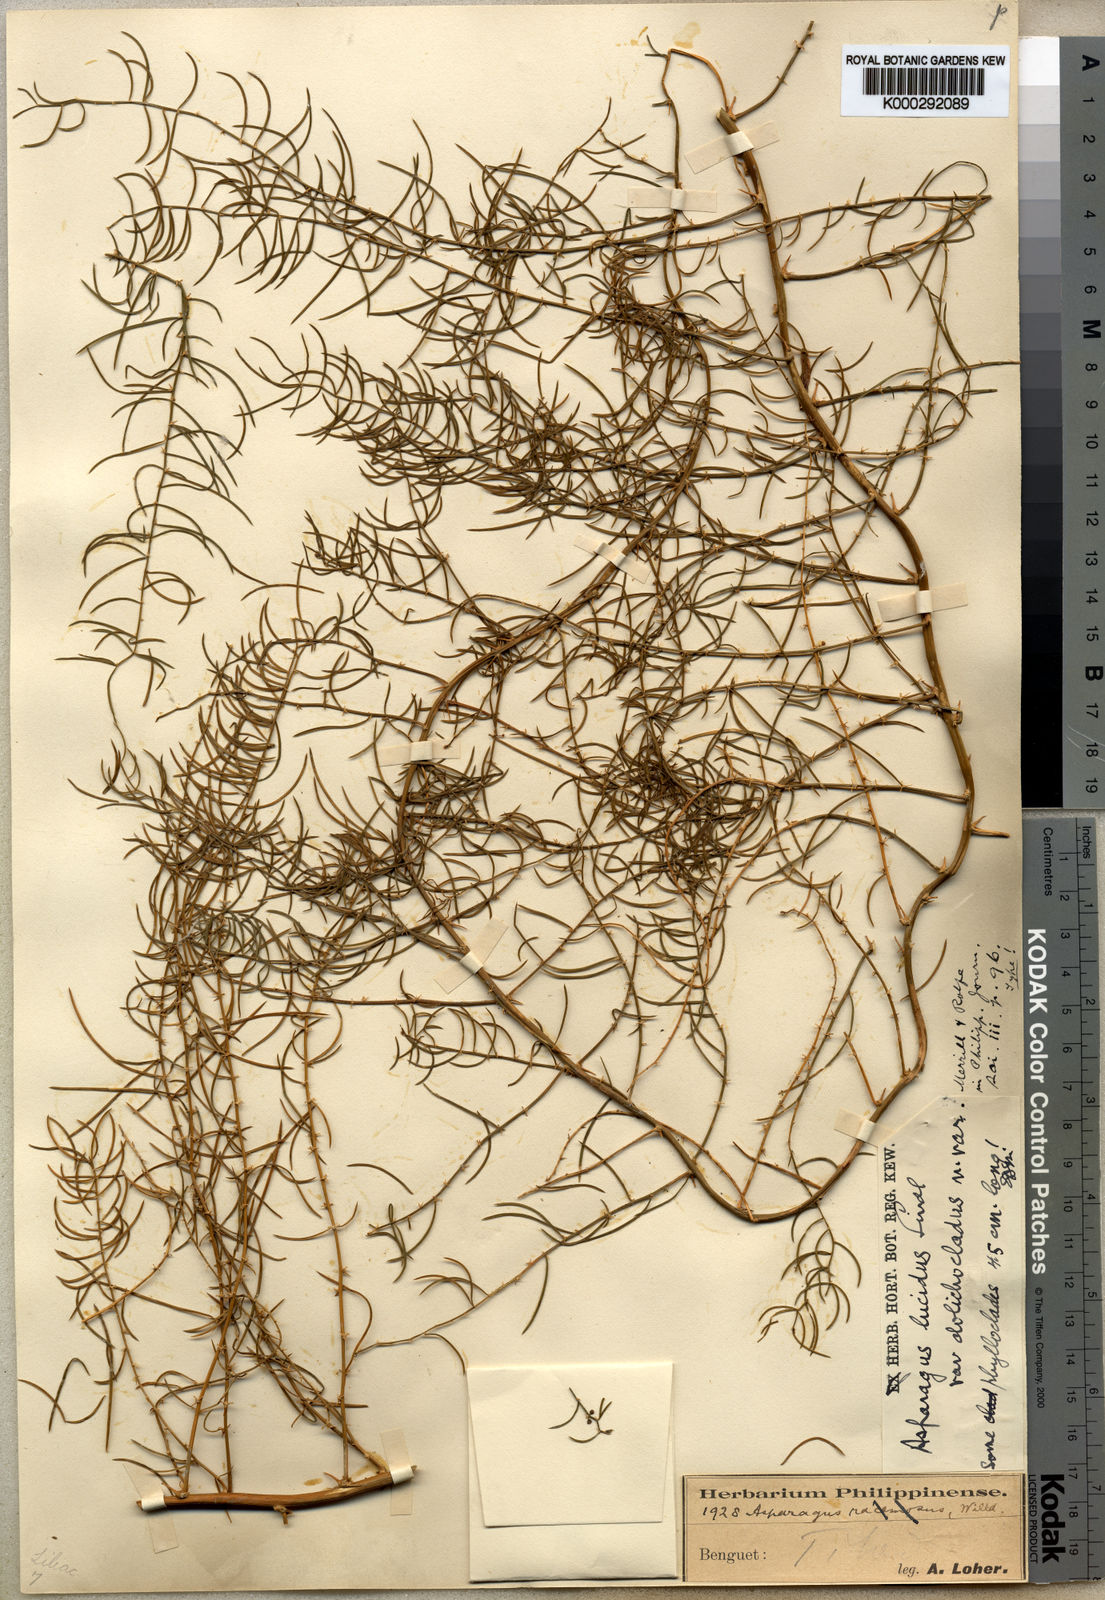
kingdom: Plantae
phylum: Tracheophyta
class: Liliopsida
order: Asparagales
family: Asparagaceae
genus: Asparagus
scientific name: Asparagus cochinchinensis
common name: Chinese asparagus
